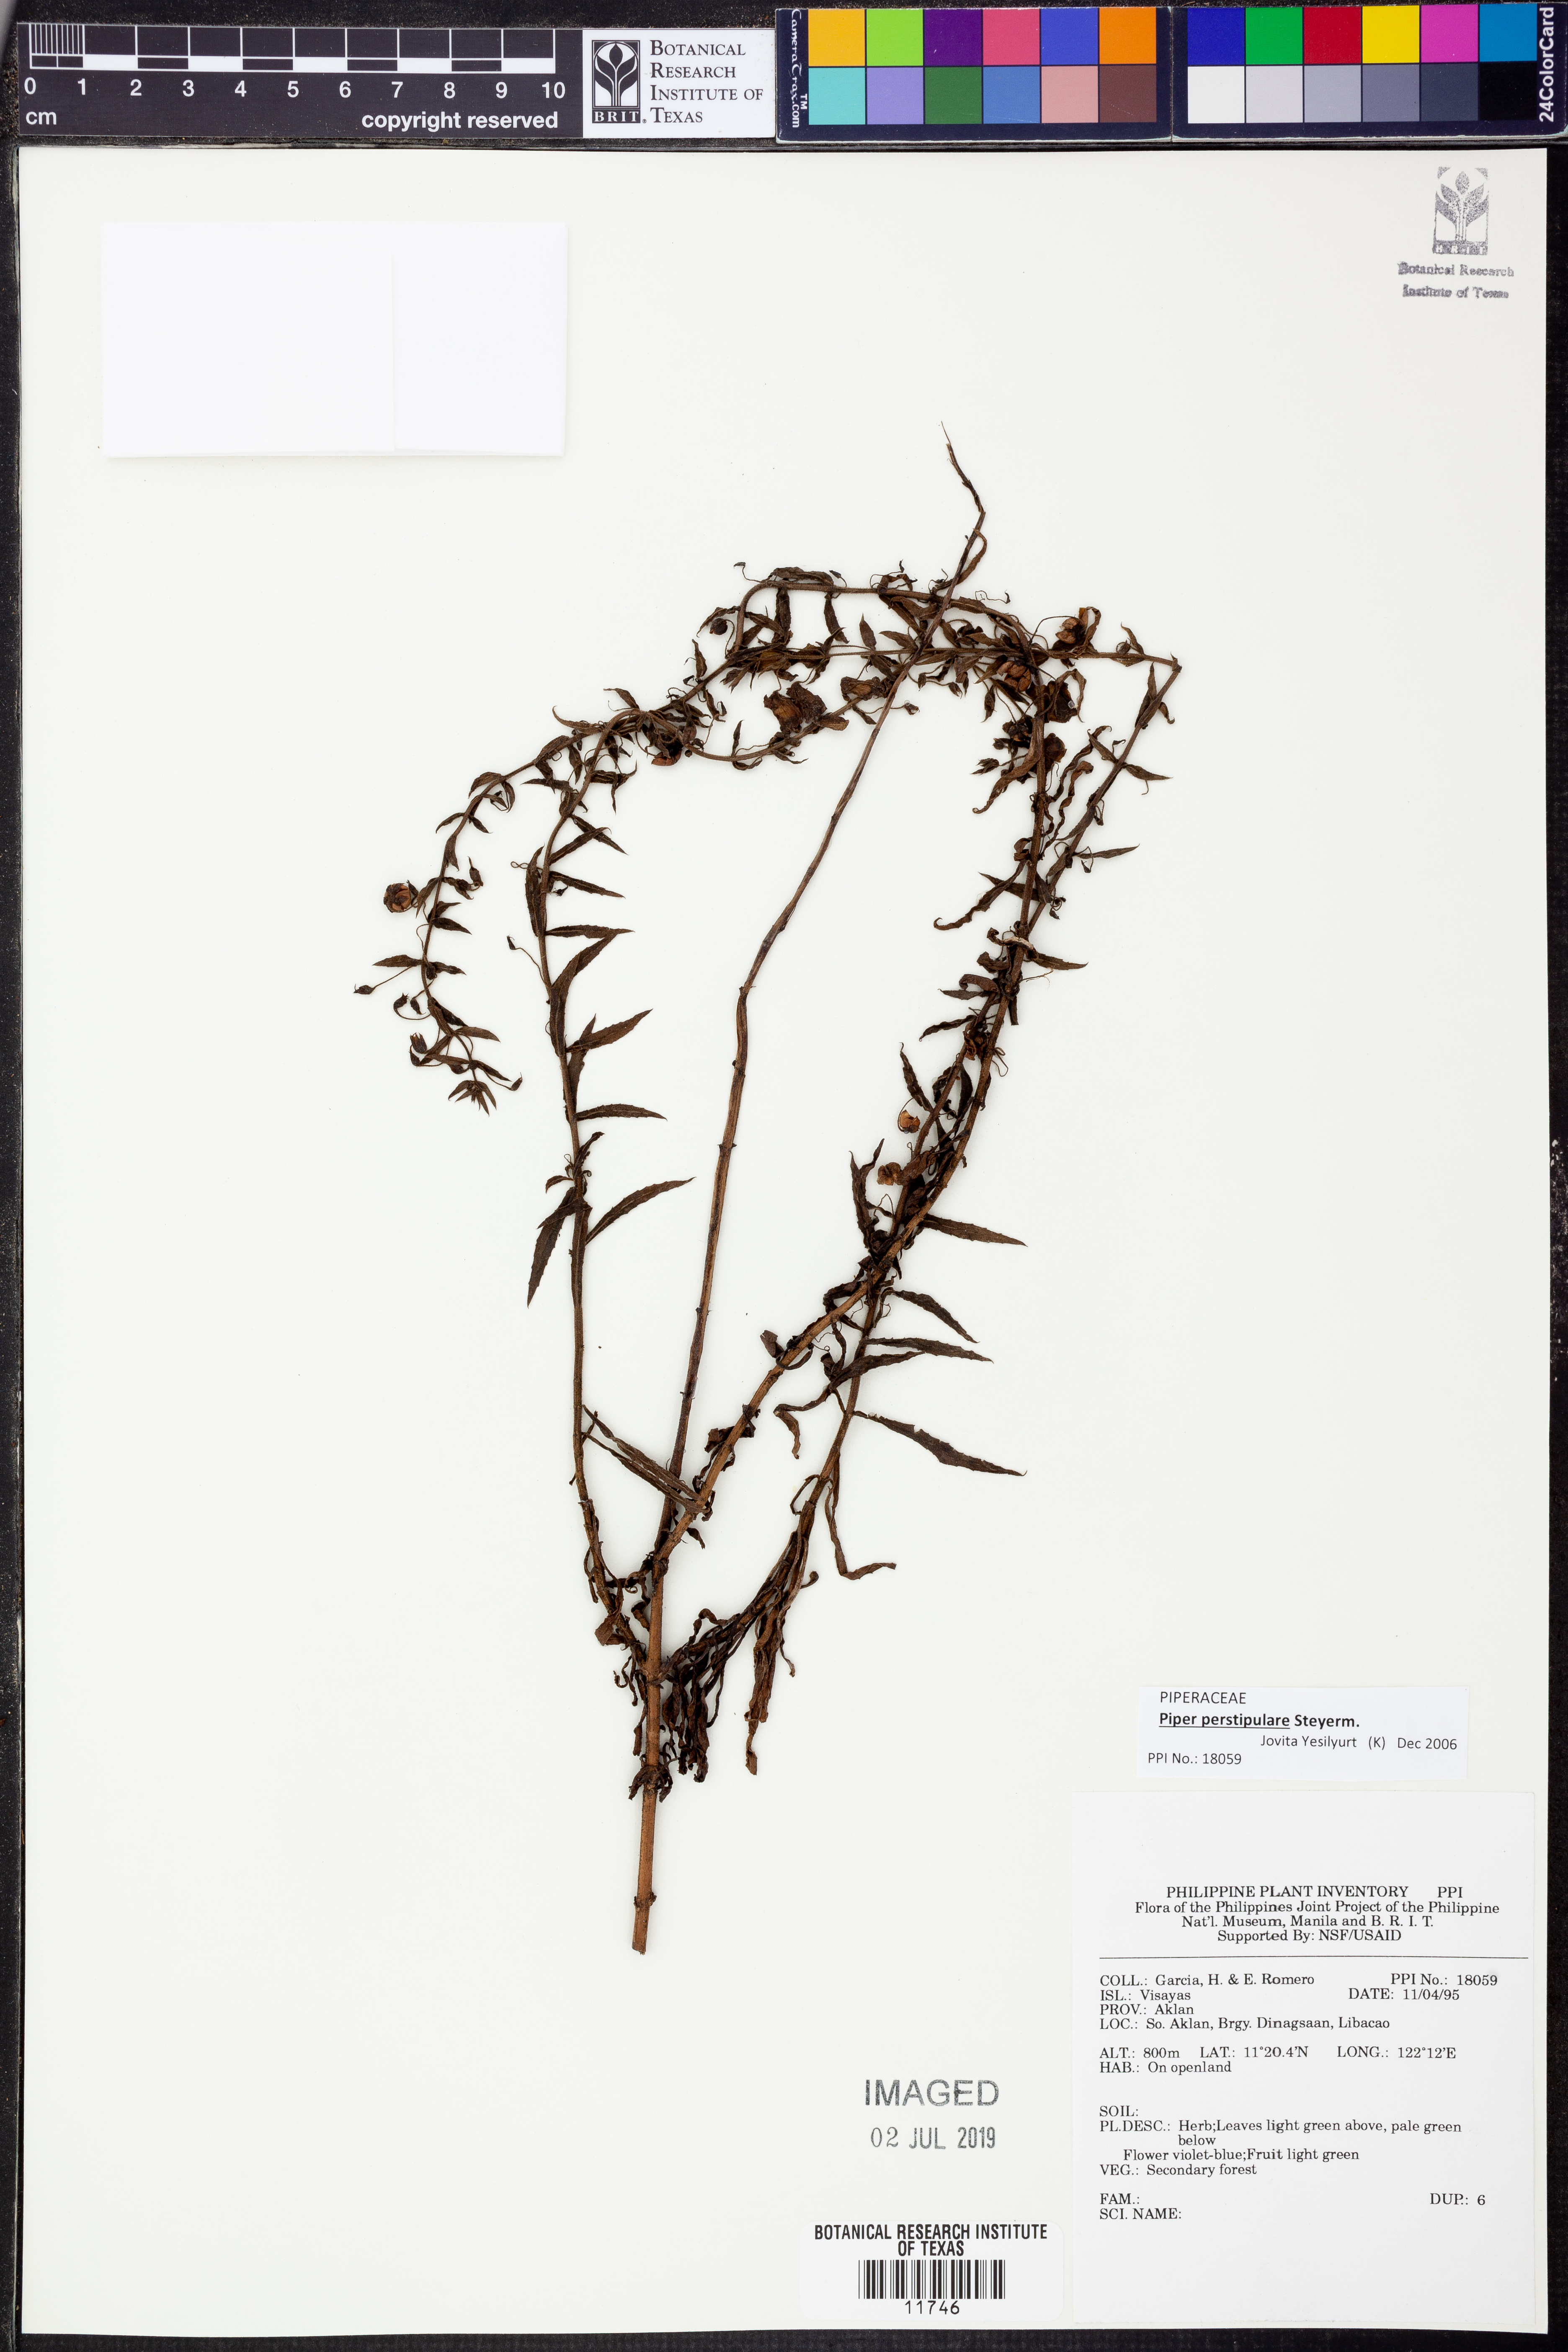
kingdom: Plantae
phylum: Tracheophyta
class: Magnoliopsida
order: Piperales
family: Piperaceae
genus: Piper
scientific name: Piper perstipulare
